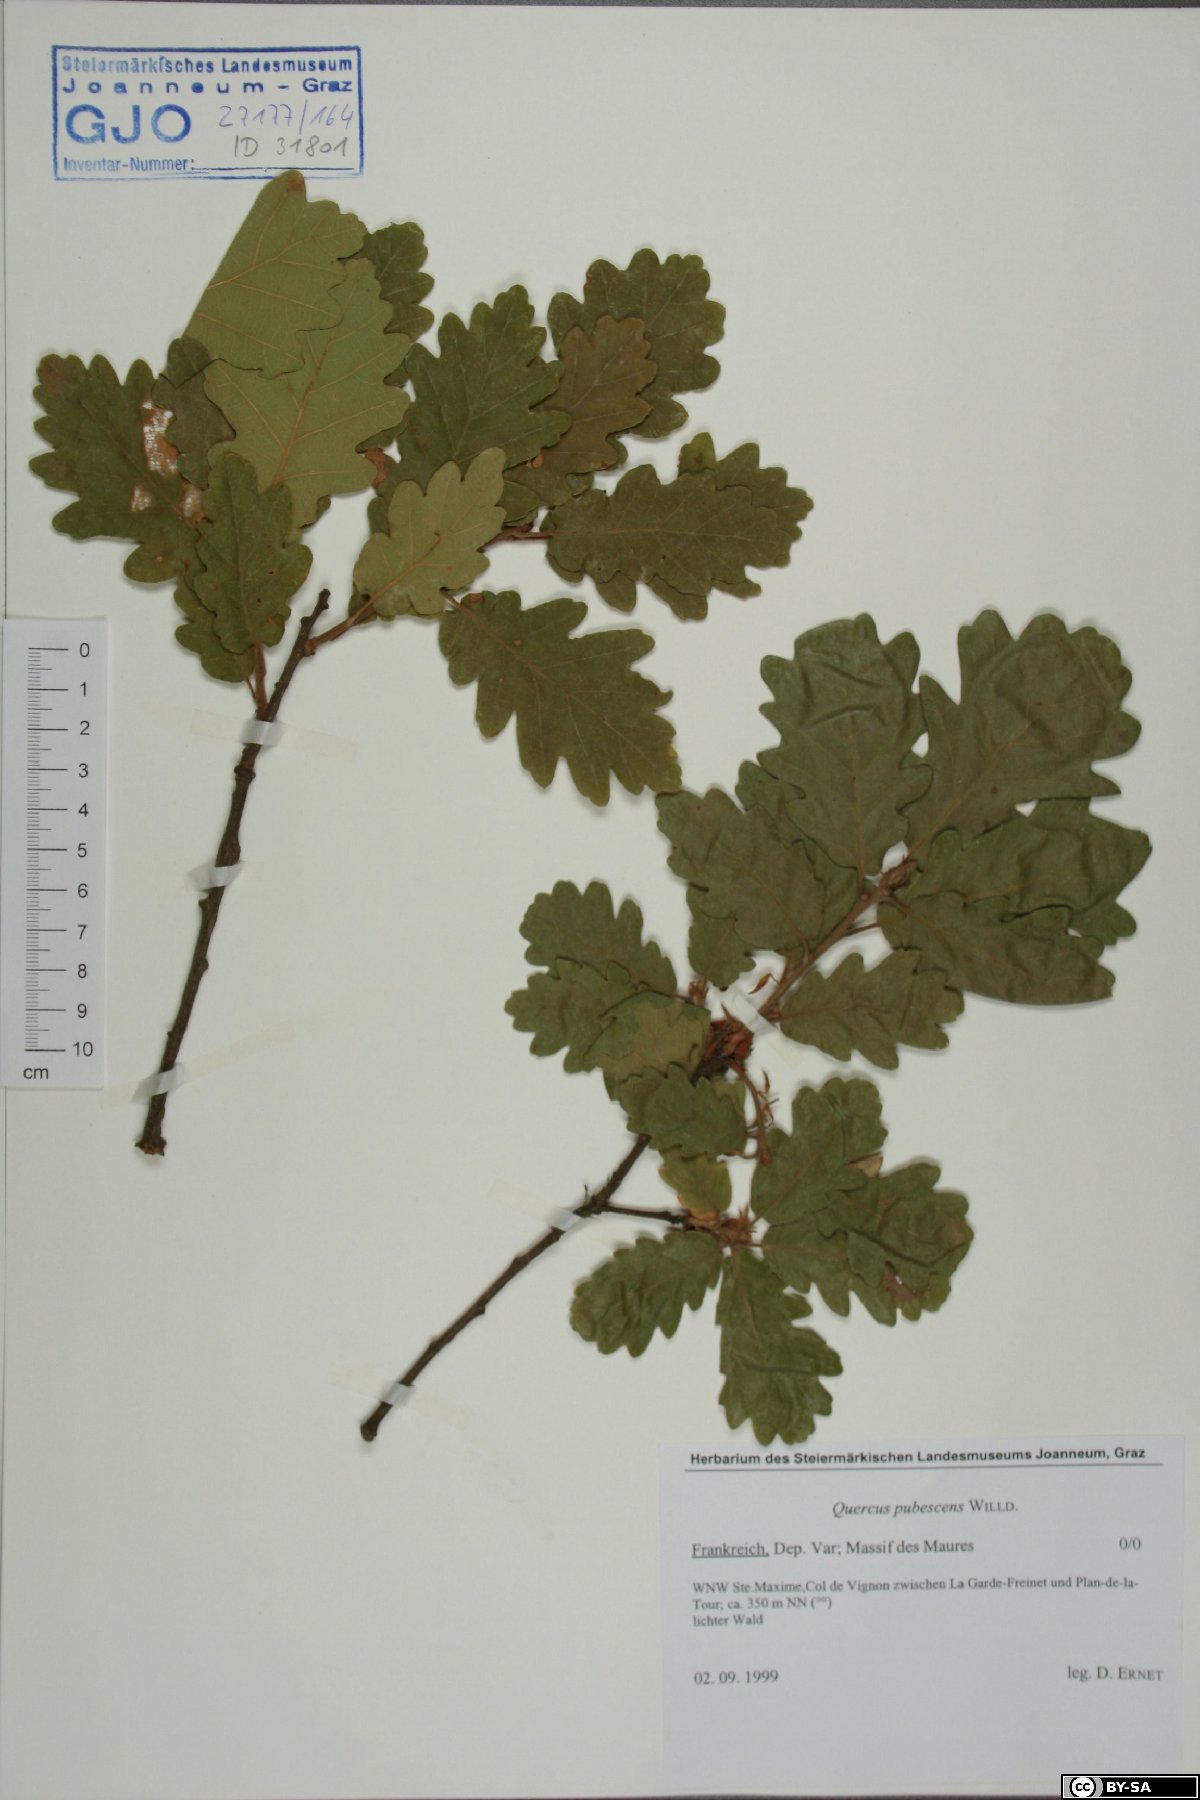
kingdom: Plantae
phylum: Tracheophyta
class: Magnoliopsida
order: Fagales
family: Fagaceae
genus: Quercus
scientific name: Quercus pubescens
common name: Downy oak
